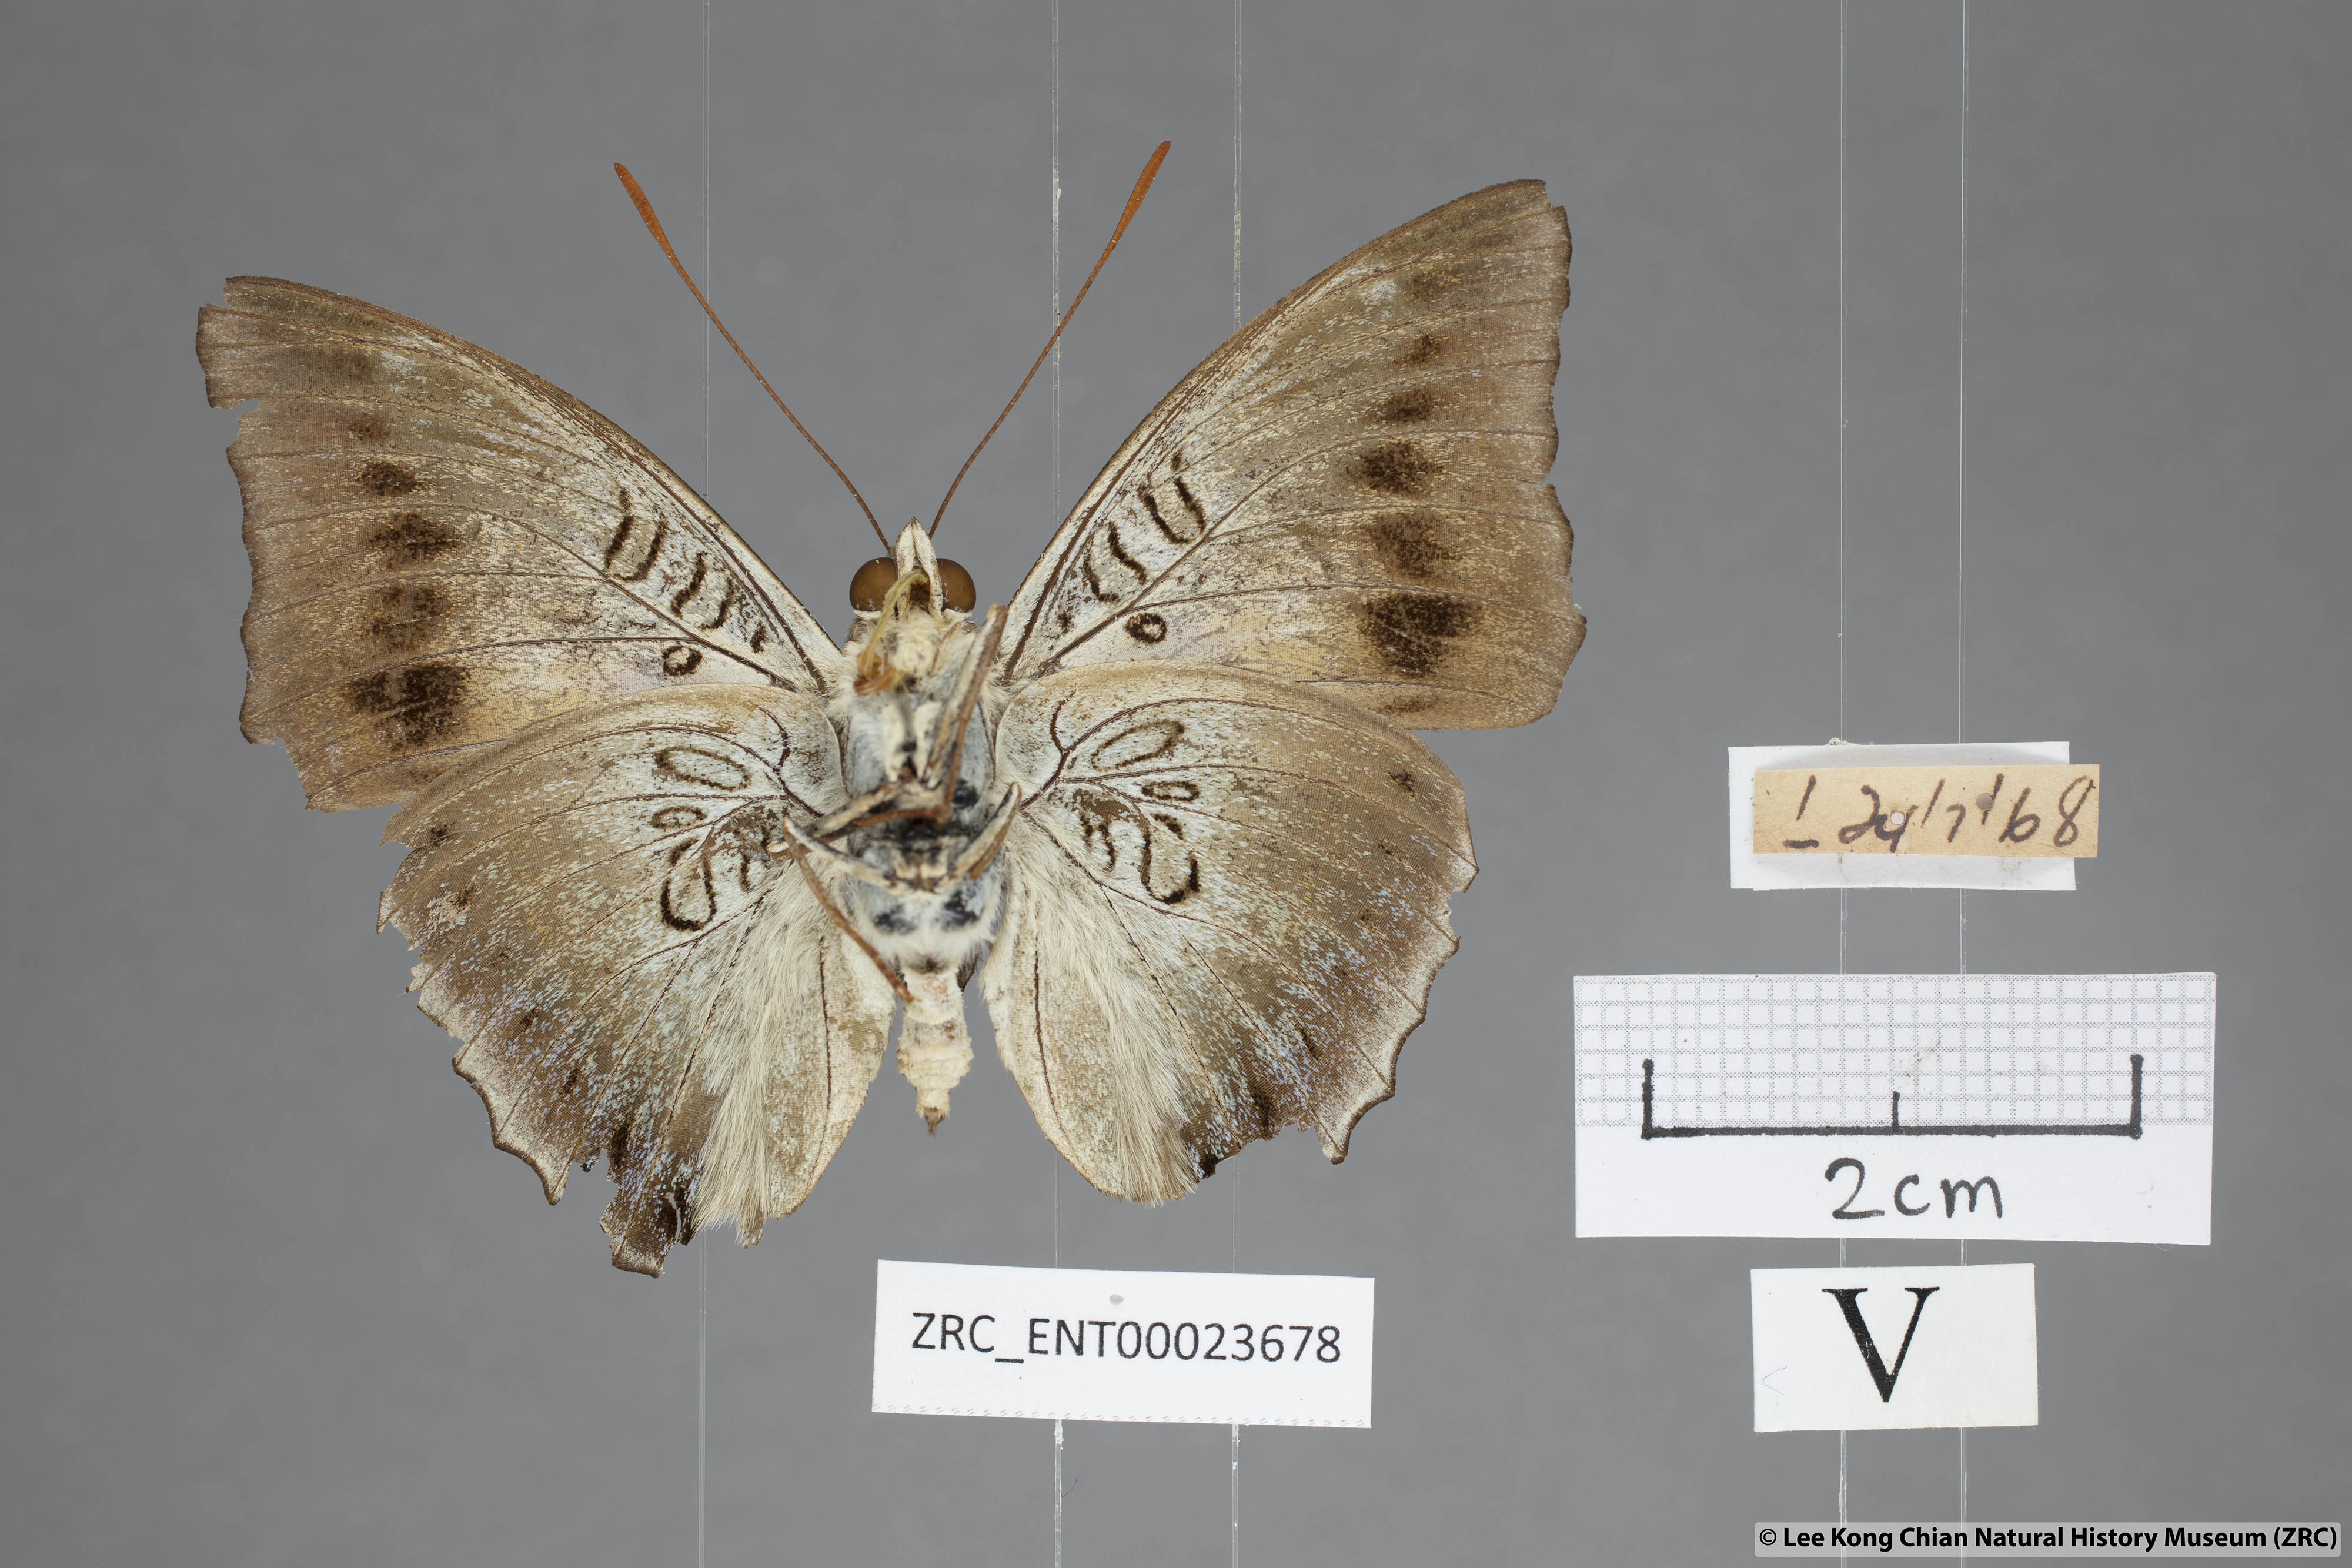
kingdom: Animalia
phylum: Arthropoda
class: Insecta
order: Lepidoptera
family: Nymphalidae
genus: Euthalia
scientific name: Euthalia phemius
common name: White-edged blue baron
